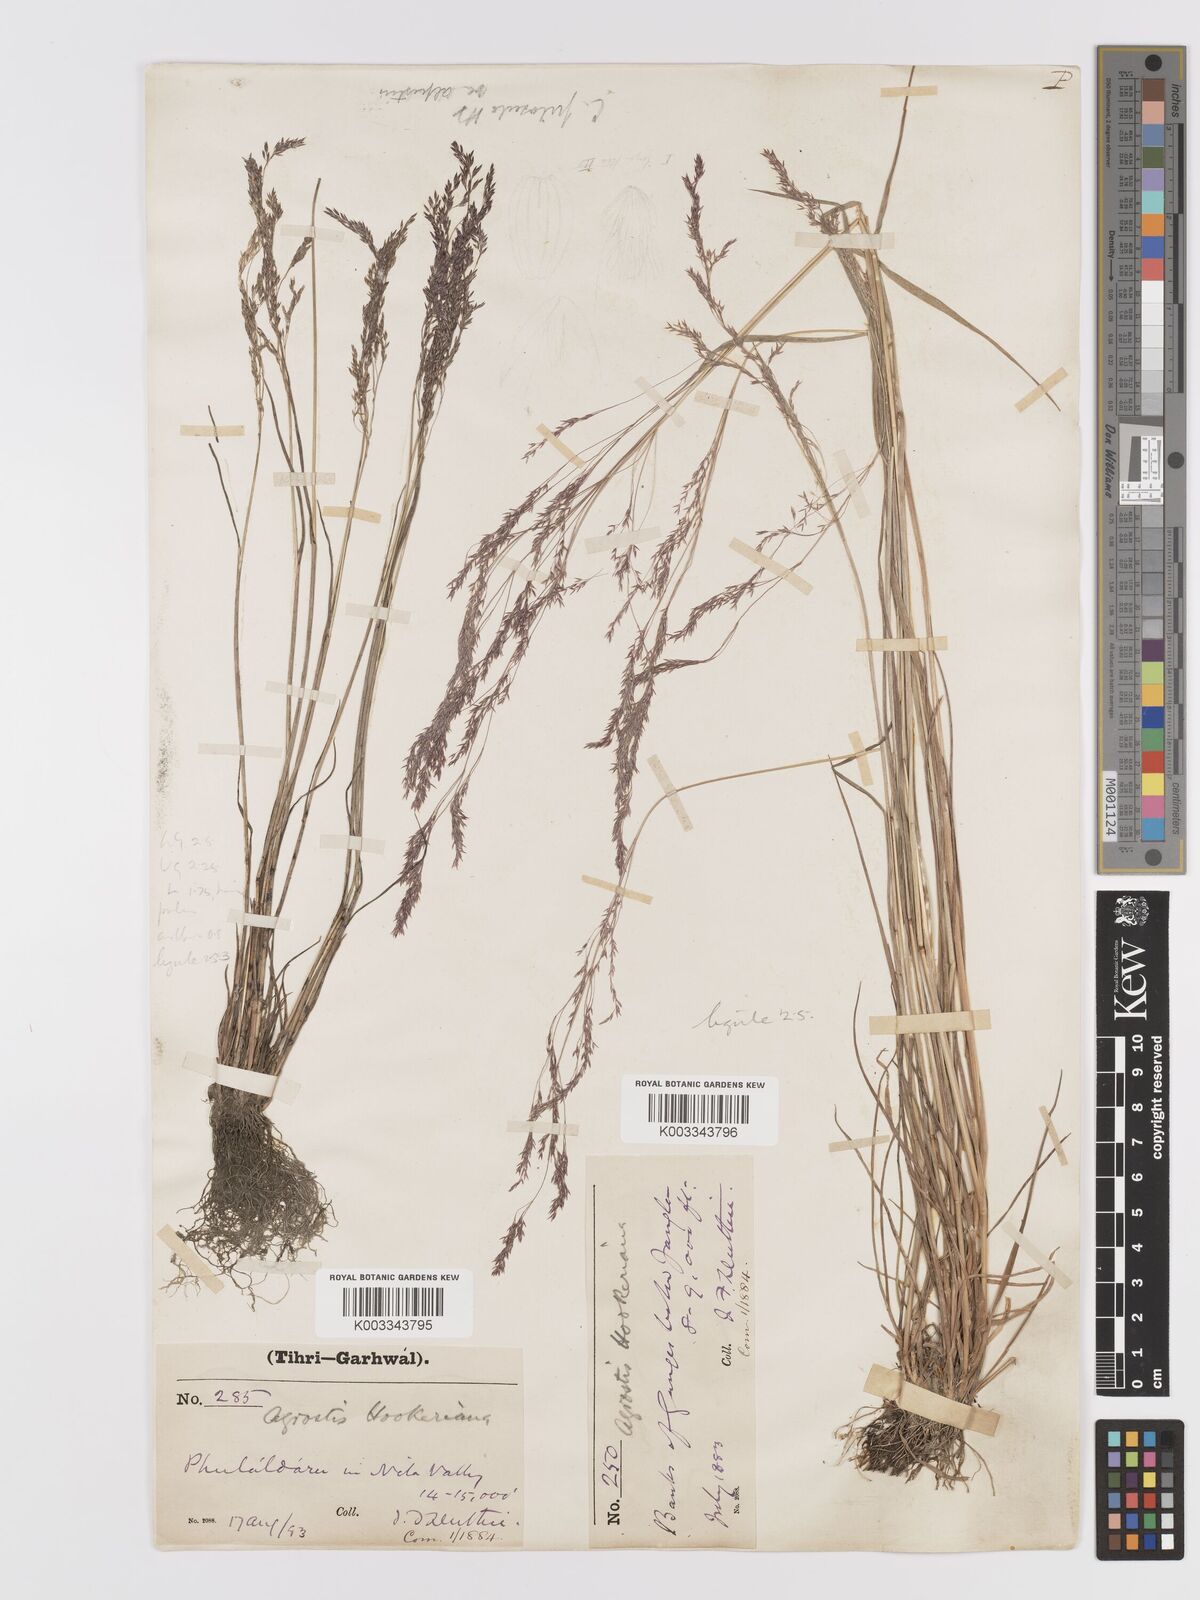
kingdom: Plantae
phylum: Tracheophyta
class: Liliopsida
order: Poales
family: Poaceae
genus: Agrostis
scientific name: Agrostis pilosula
